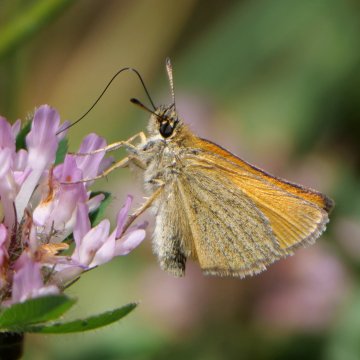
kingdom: Animalia
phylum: Arthropoda
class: Insecta
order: Lepidoptera
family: Hesperiidae
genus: Thymelicus
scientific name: Thymelicus lineola
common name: European Skipper
